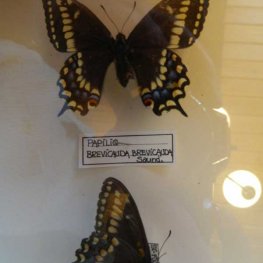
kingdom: Animalia
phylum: Arthropoda
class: Insecta
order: Lepidoptera
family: Papilionidae
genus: Papilio
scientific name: Papilio brevicauda
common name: Short-tailed Swallowtail
